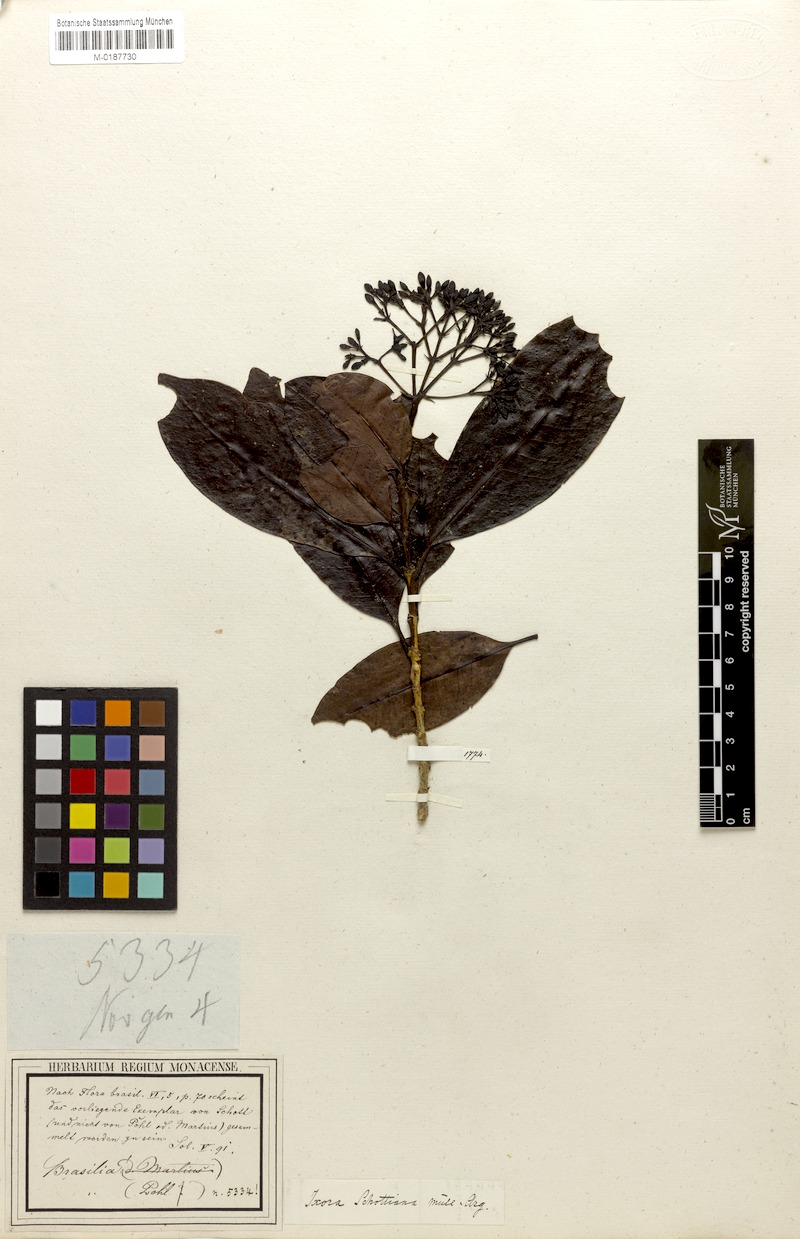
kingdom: Plantae
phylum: Tracheophyta
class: Magnoliopsida
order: Gentianales
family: Rubiaceae
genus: Ixora
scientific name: Ixora gardneriana
